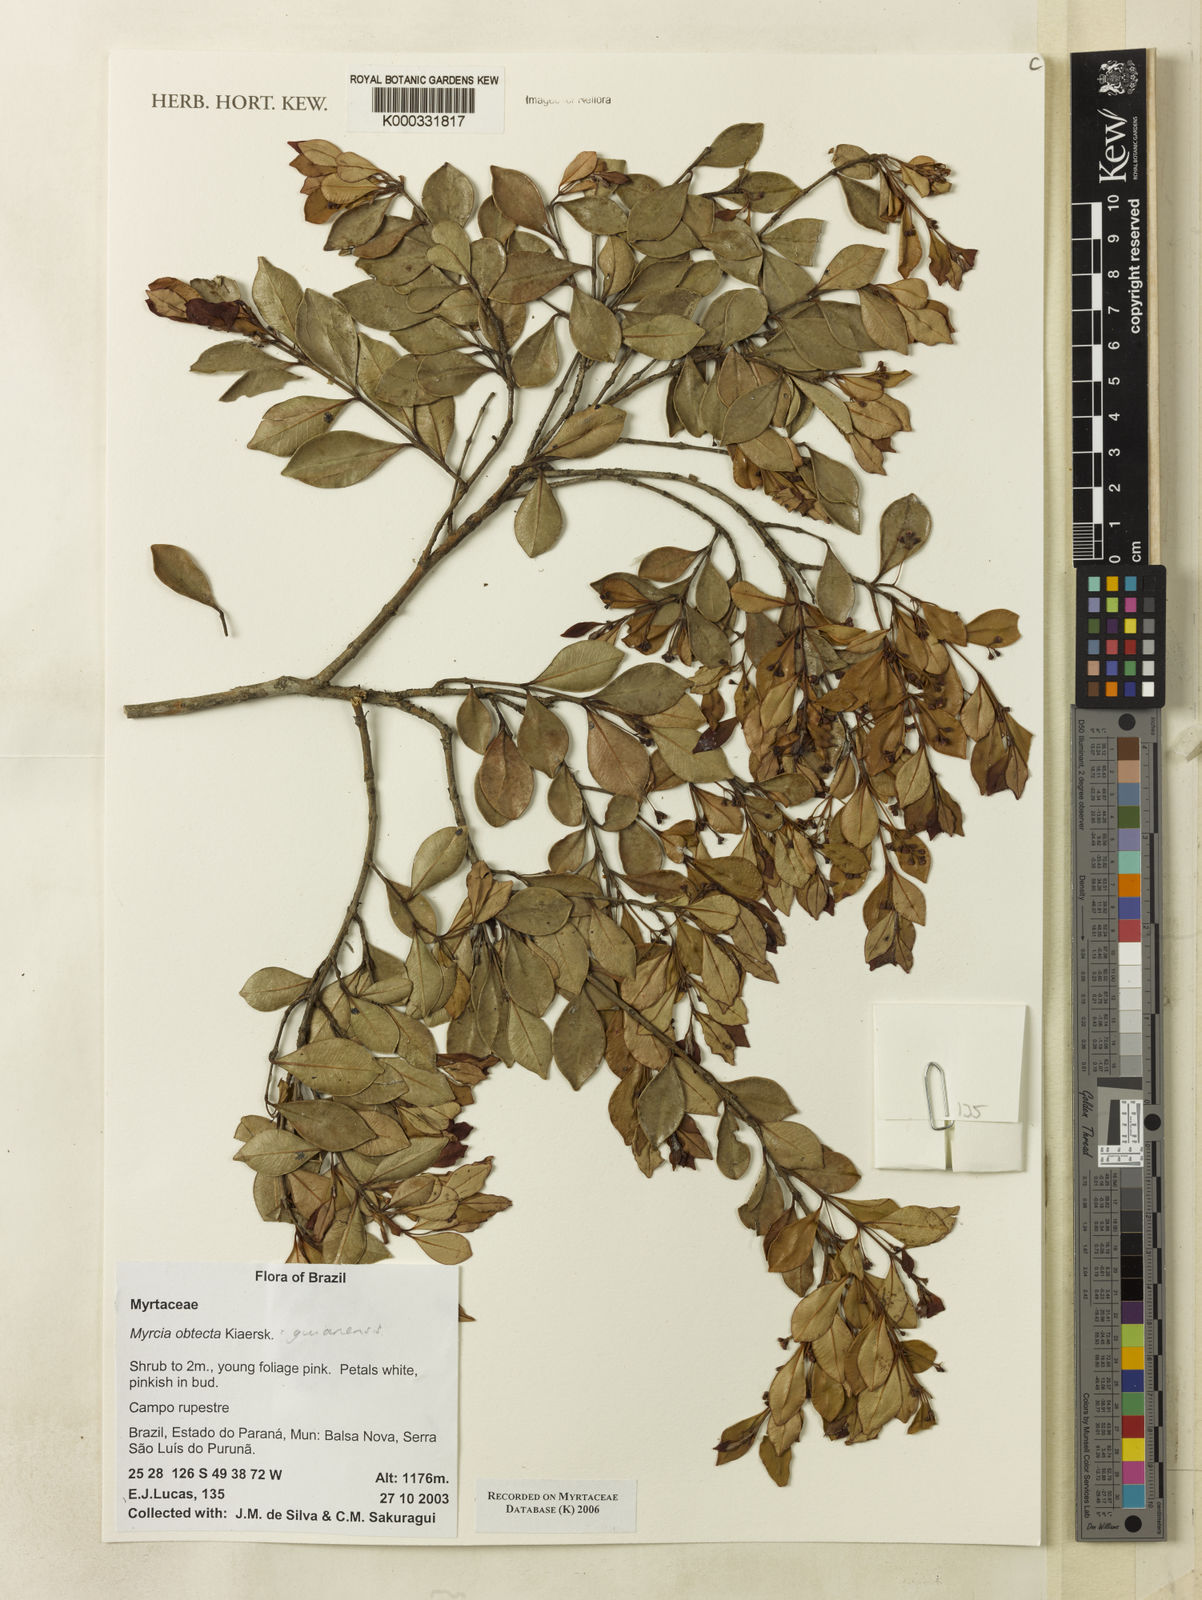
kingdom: Plantae
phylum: Tracheophyta
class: Magnoliopsida
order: Myrtales
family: Myrtaceae
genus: Myrcia
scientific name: Myrcia guianensis
